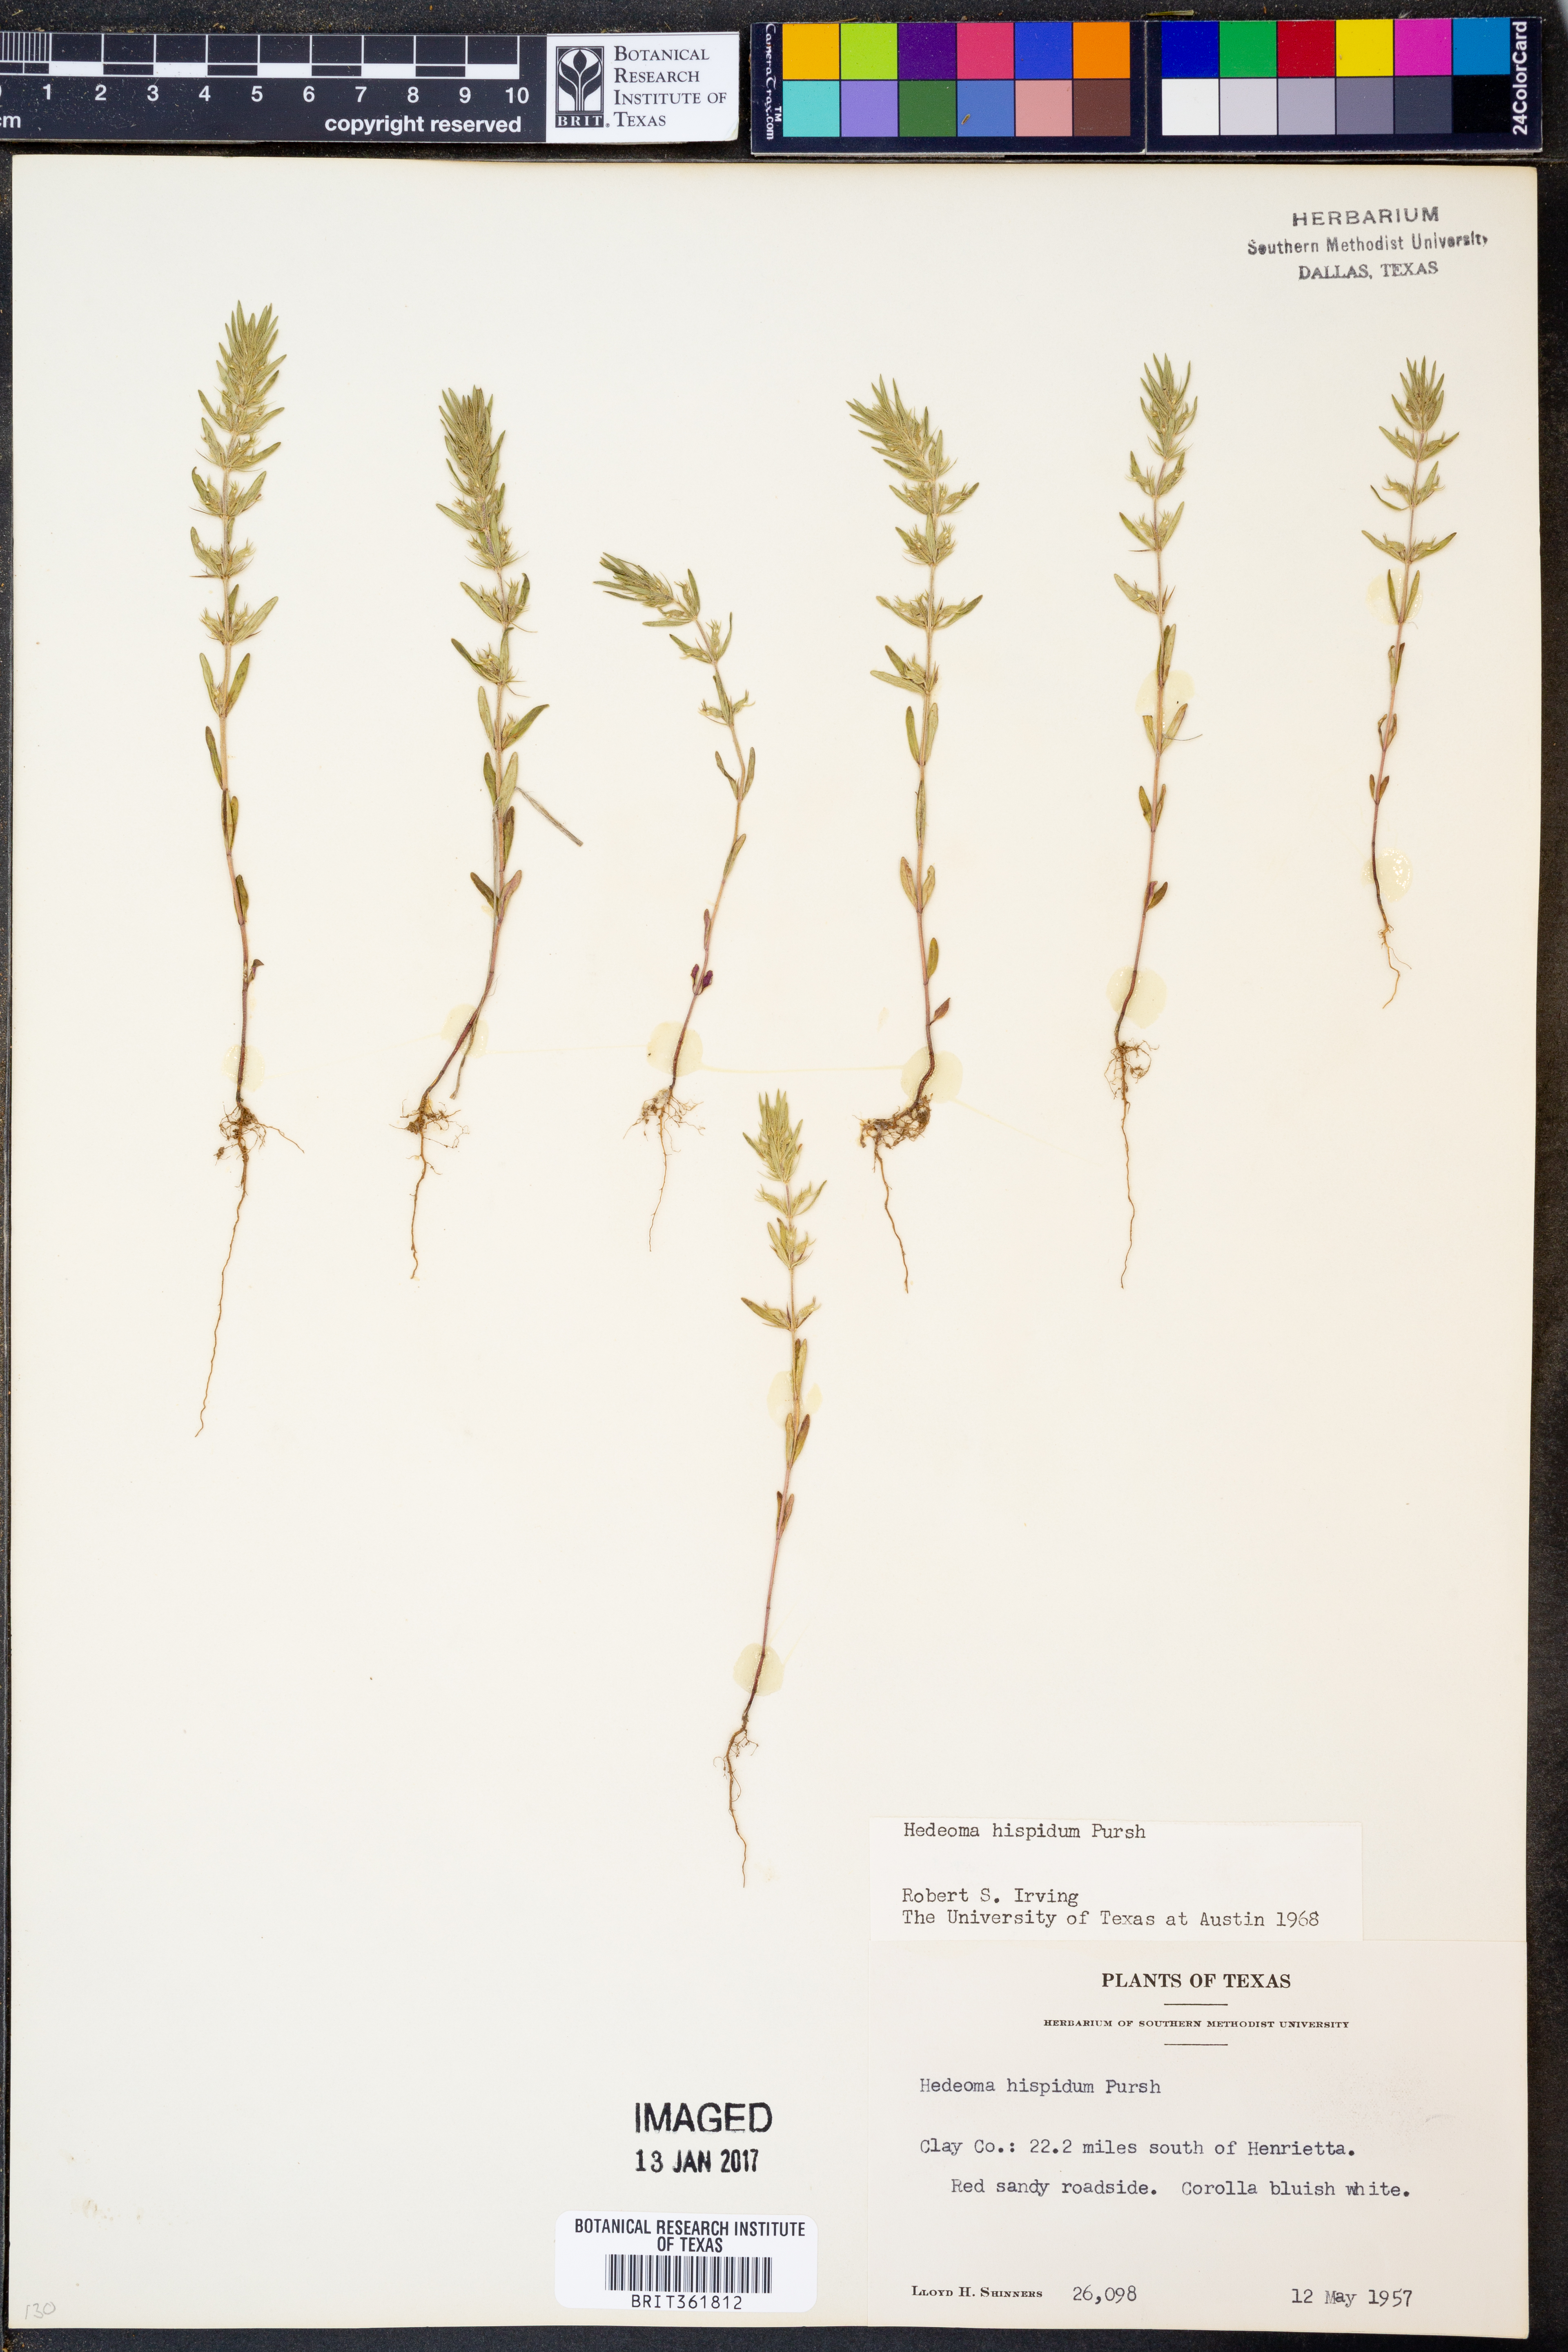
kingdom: Plantae
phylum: Tracheophyta
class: Magnoliopsida
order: Lamiales
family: Lamiaceae
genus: Hedeoma
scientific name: Hedeoma hispida
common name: Mock pennyroyal
